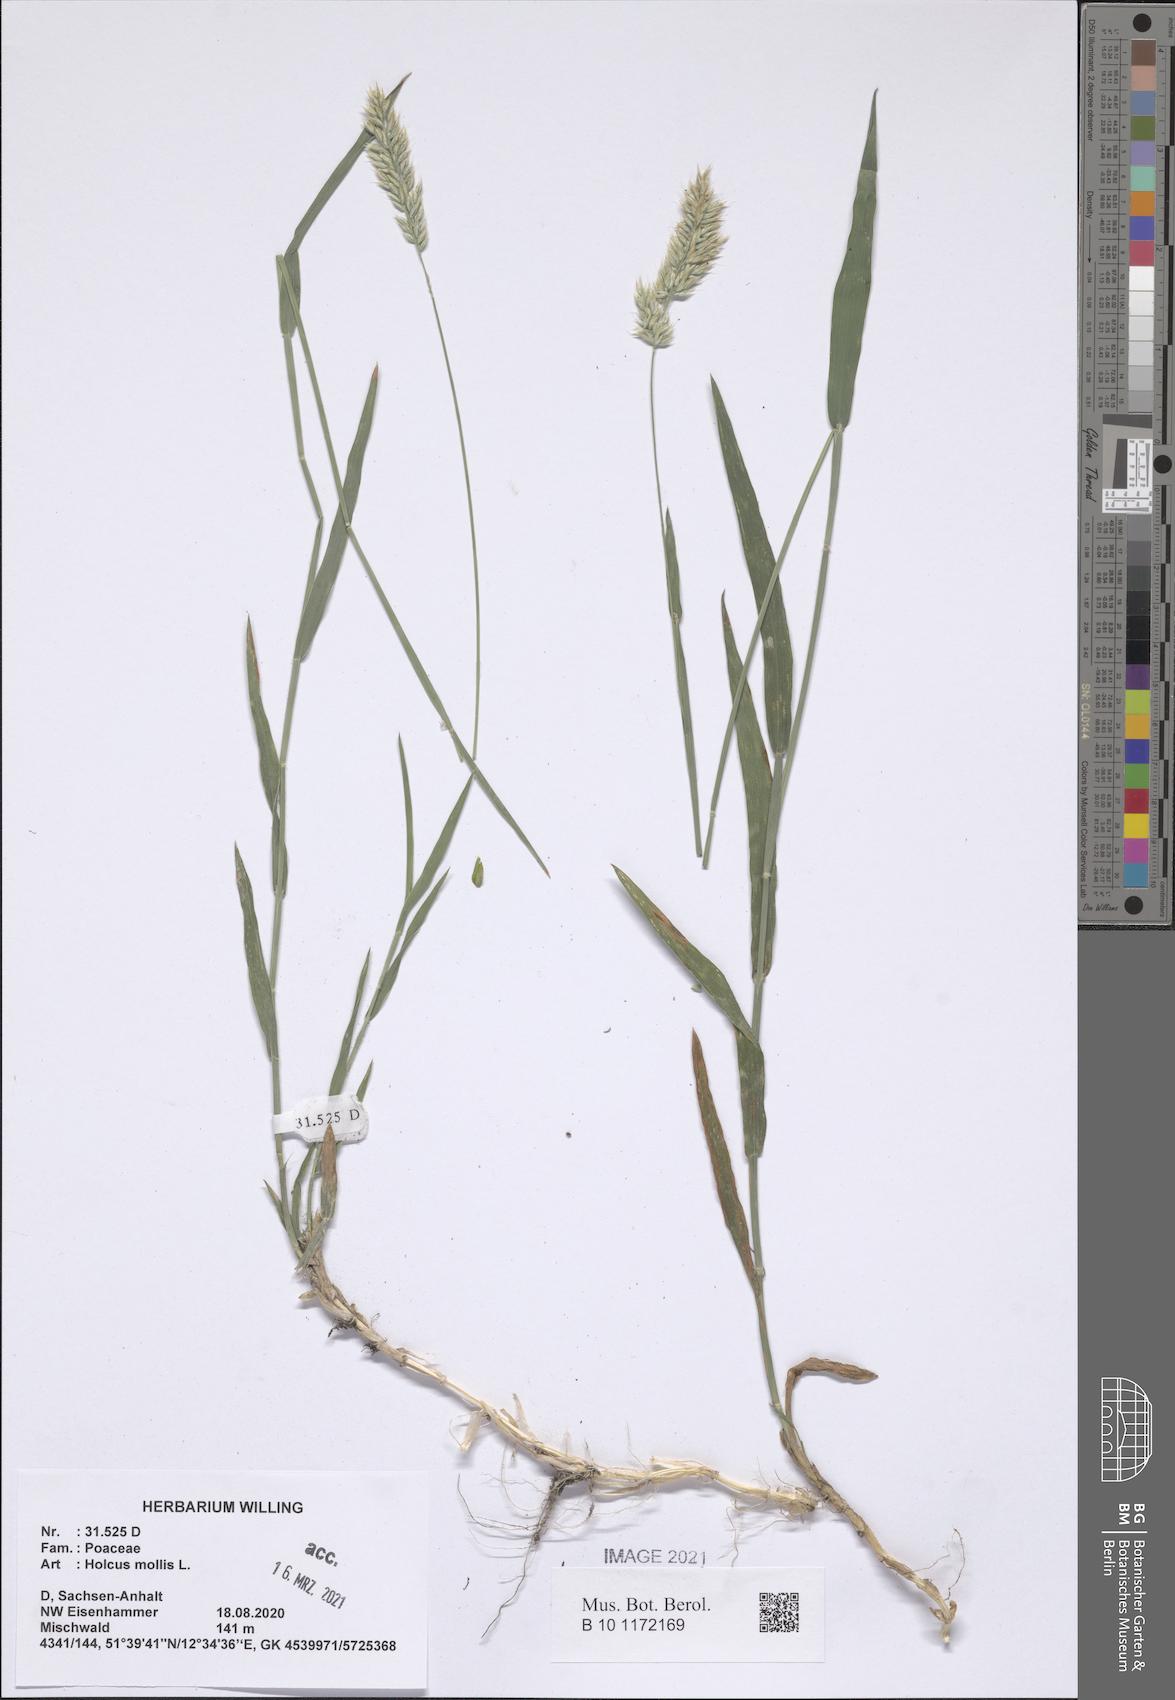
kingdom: Plantae
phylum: Tracheophyta
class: Liliopsida
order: Poales
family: Poaceae
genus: Holcus
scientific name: Holcus mollis
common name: Creeping velvetgrass
